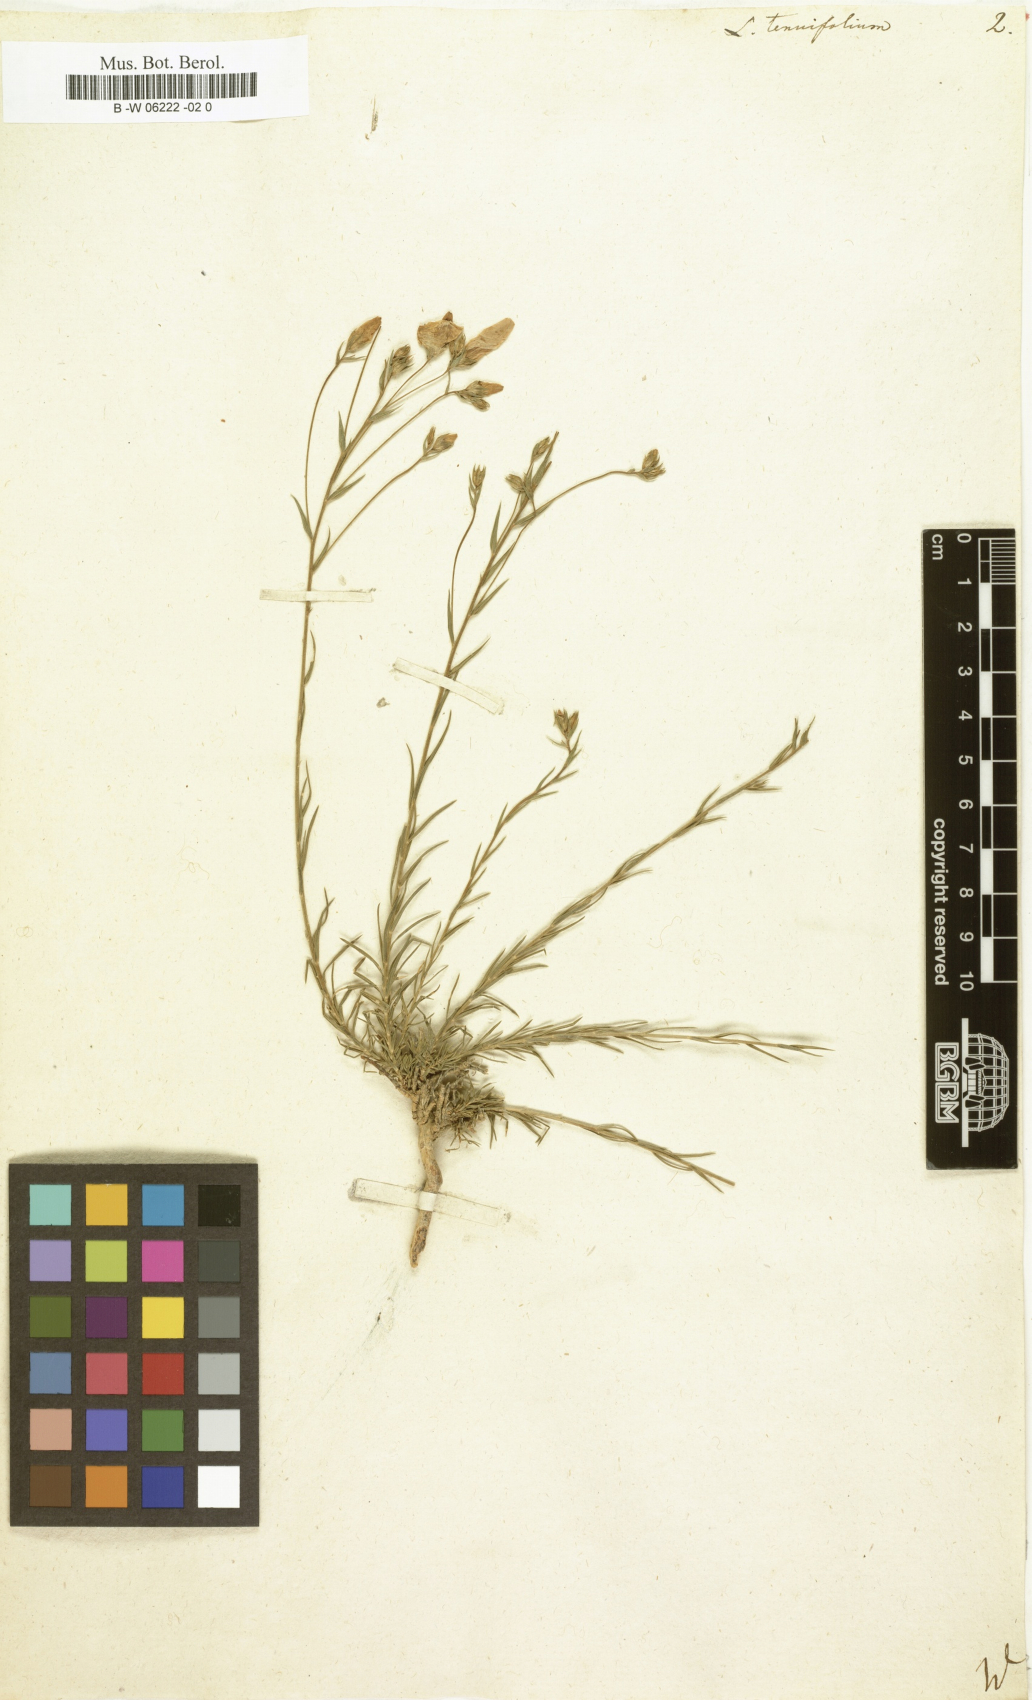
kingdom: Plantae
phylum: Tracheophyta
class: Magnoliopsida
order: Malpighiales
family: Linaceae
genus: Linum
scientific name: Linum tenuifolium
